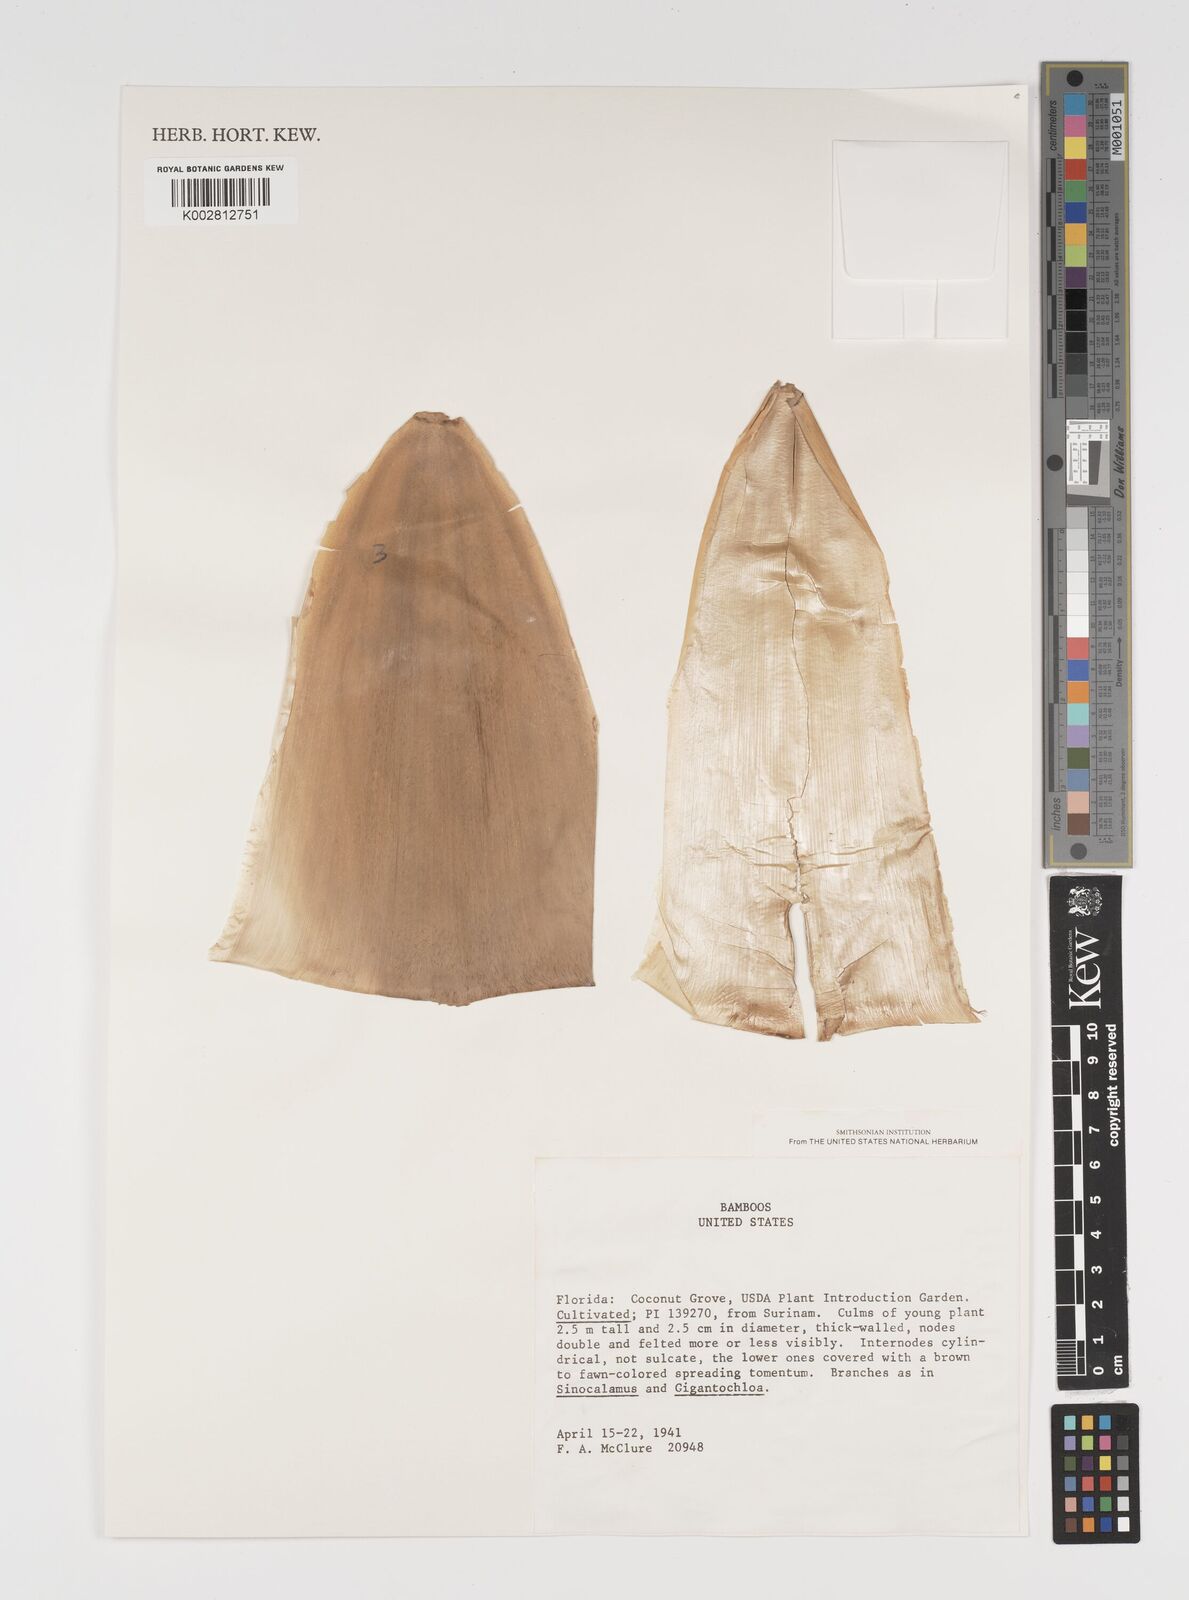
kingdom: Plantae
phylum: Tracheophyta
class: Liliopsida
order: Poales
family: Poaceae
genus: Arundinaria
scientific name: Arundinaria
